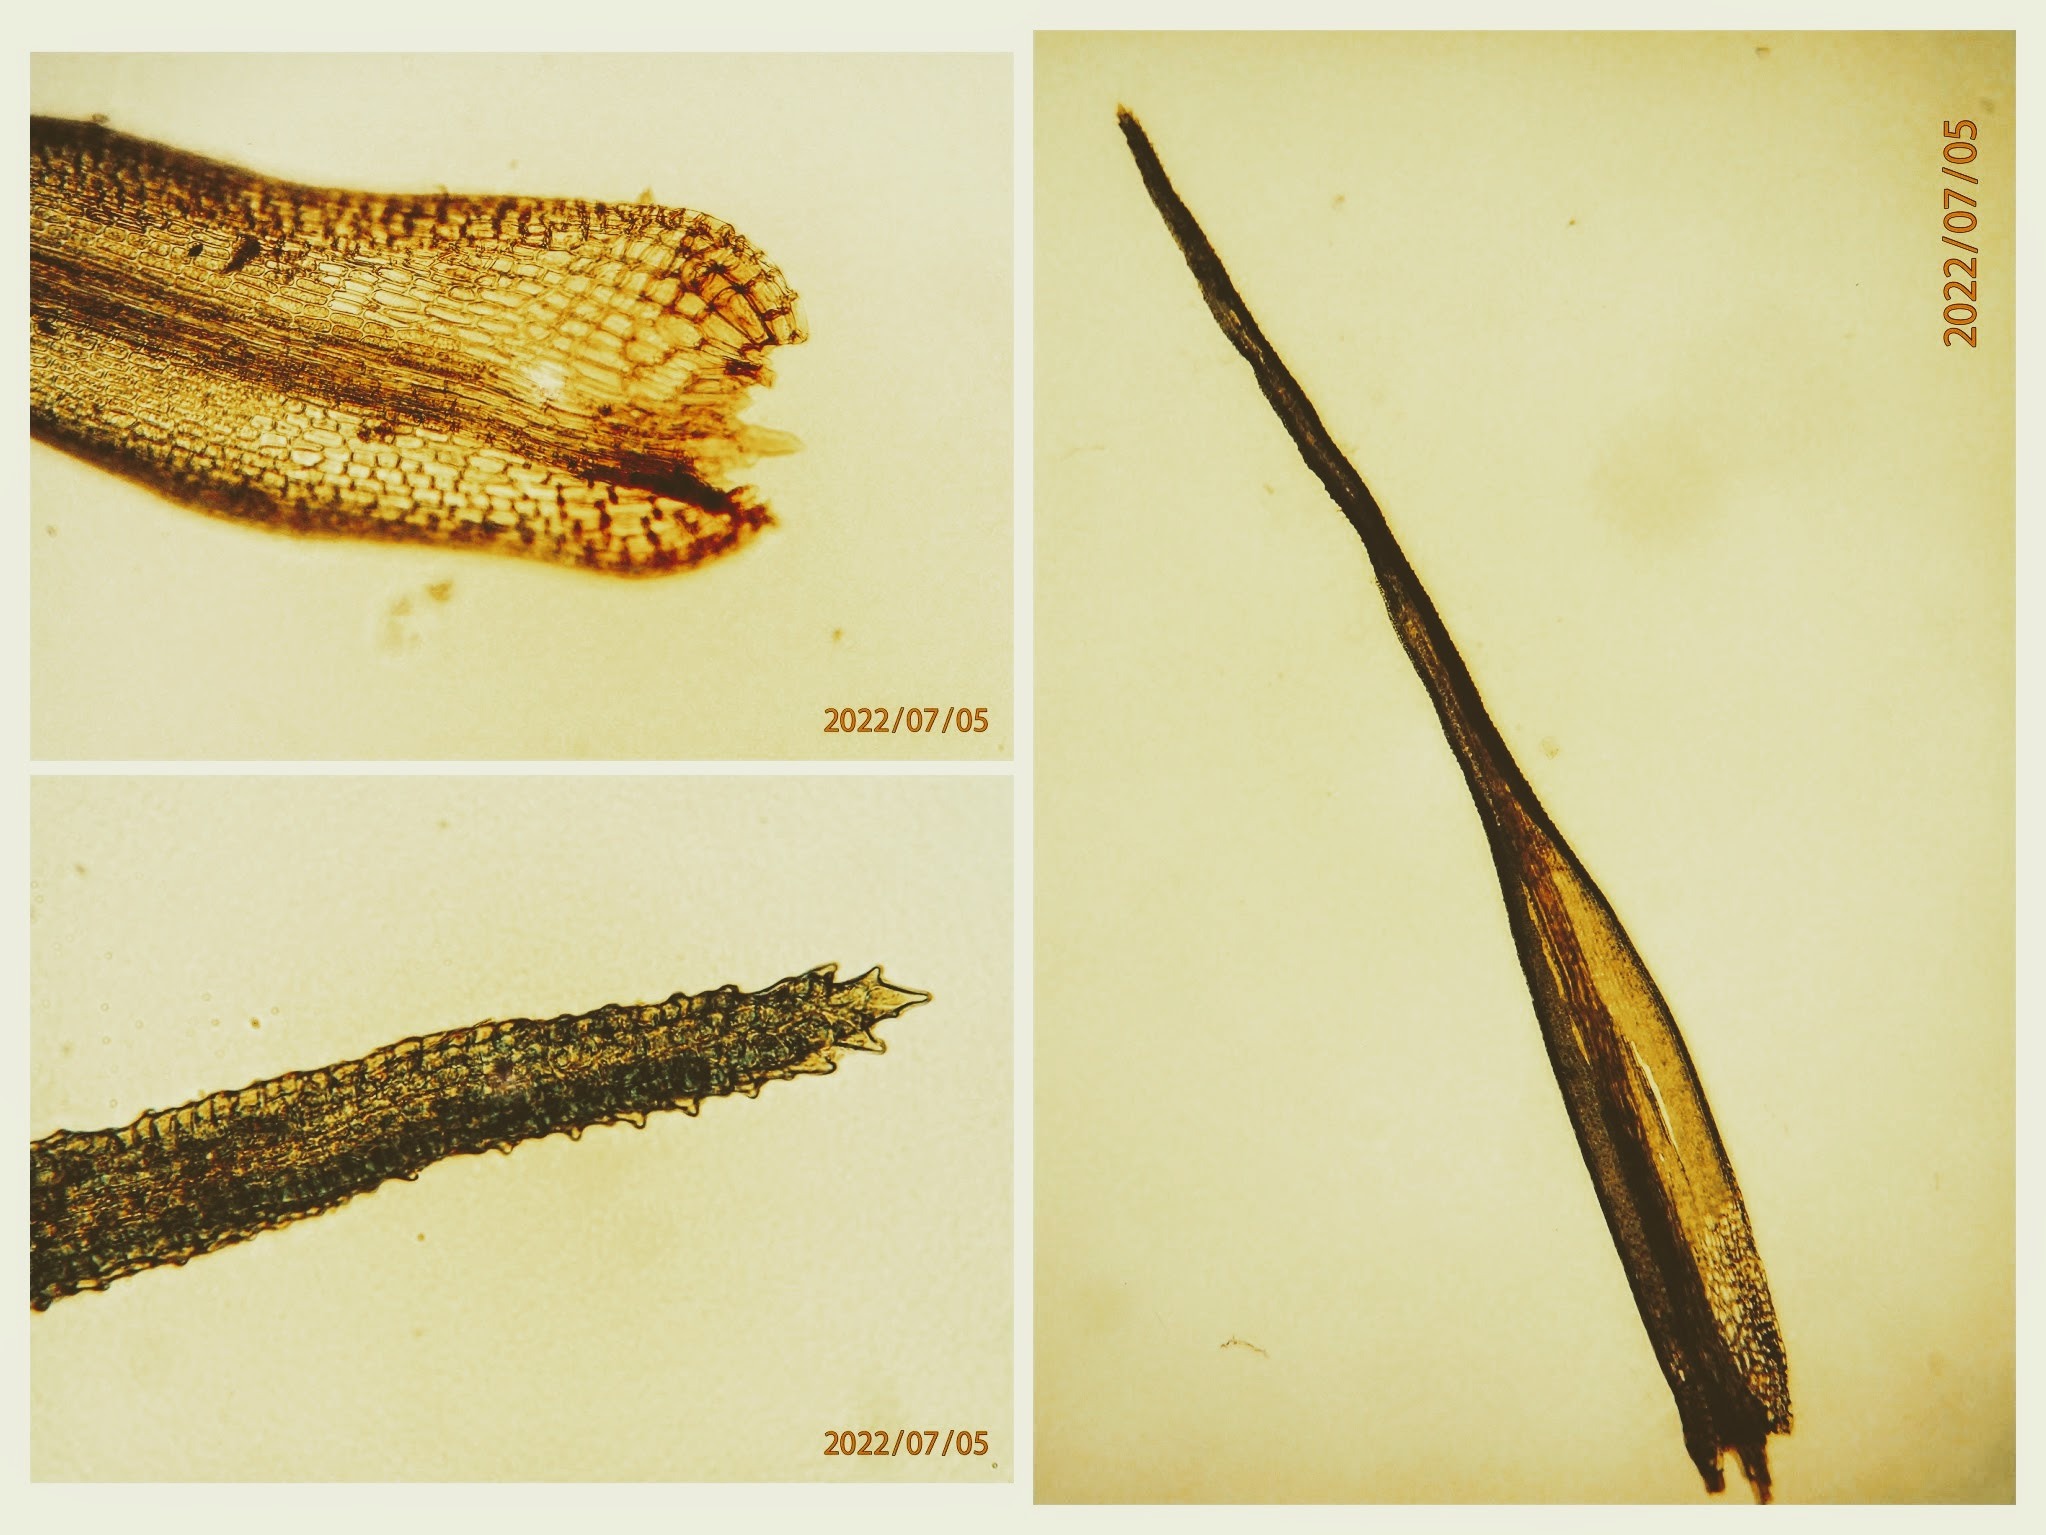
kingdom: Plantae
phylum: Bryophyta
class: Bryopsida
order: Dicranales
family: Dicranaceae
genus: Orthodicranum
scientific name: Orthodicranum montanum
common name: Tæt tyndvinge
